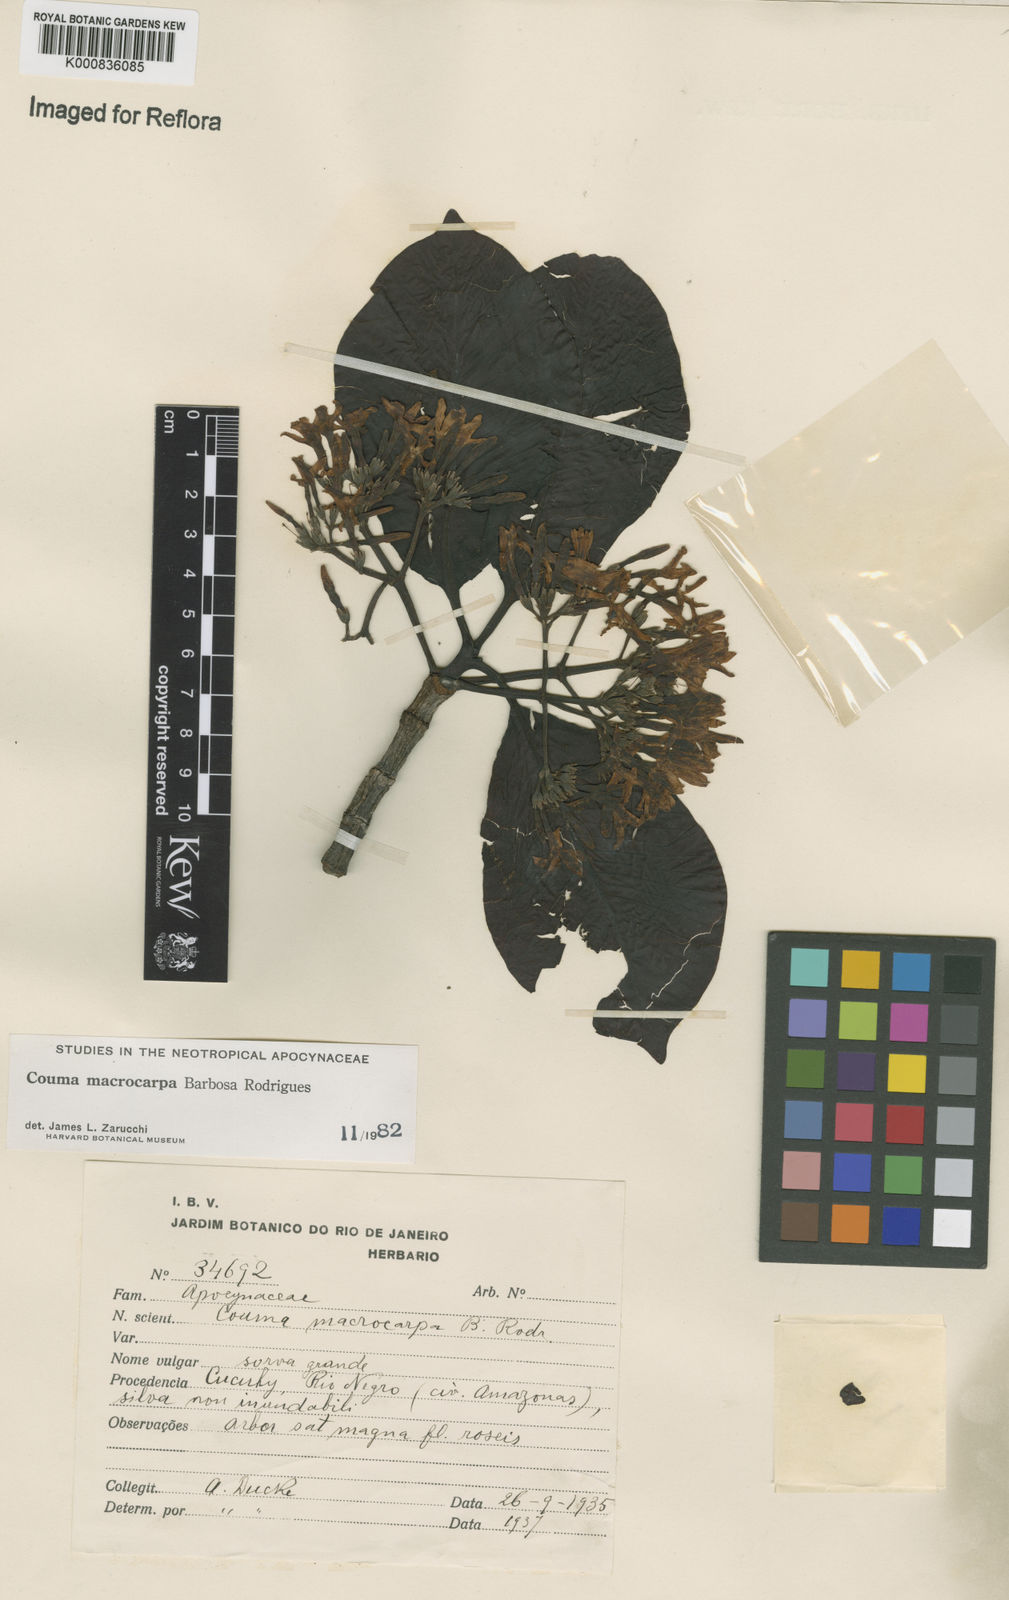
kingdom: Plantae
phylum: Tracheophyta
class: Magnoliopsida
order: Gentianales
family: Apocynaceae
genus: Couma
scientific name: Couma macrocarpa
